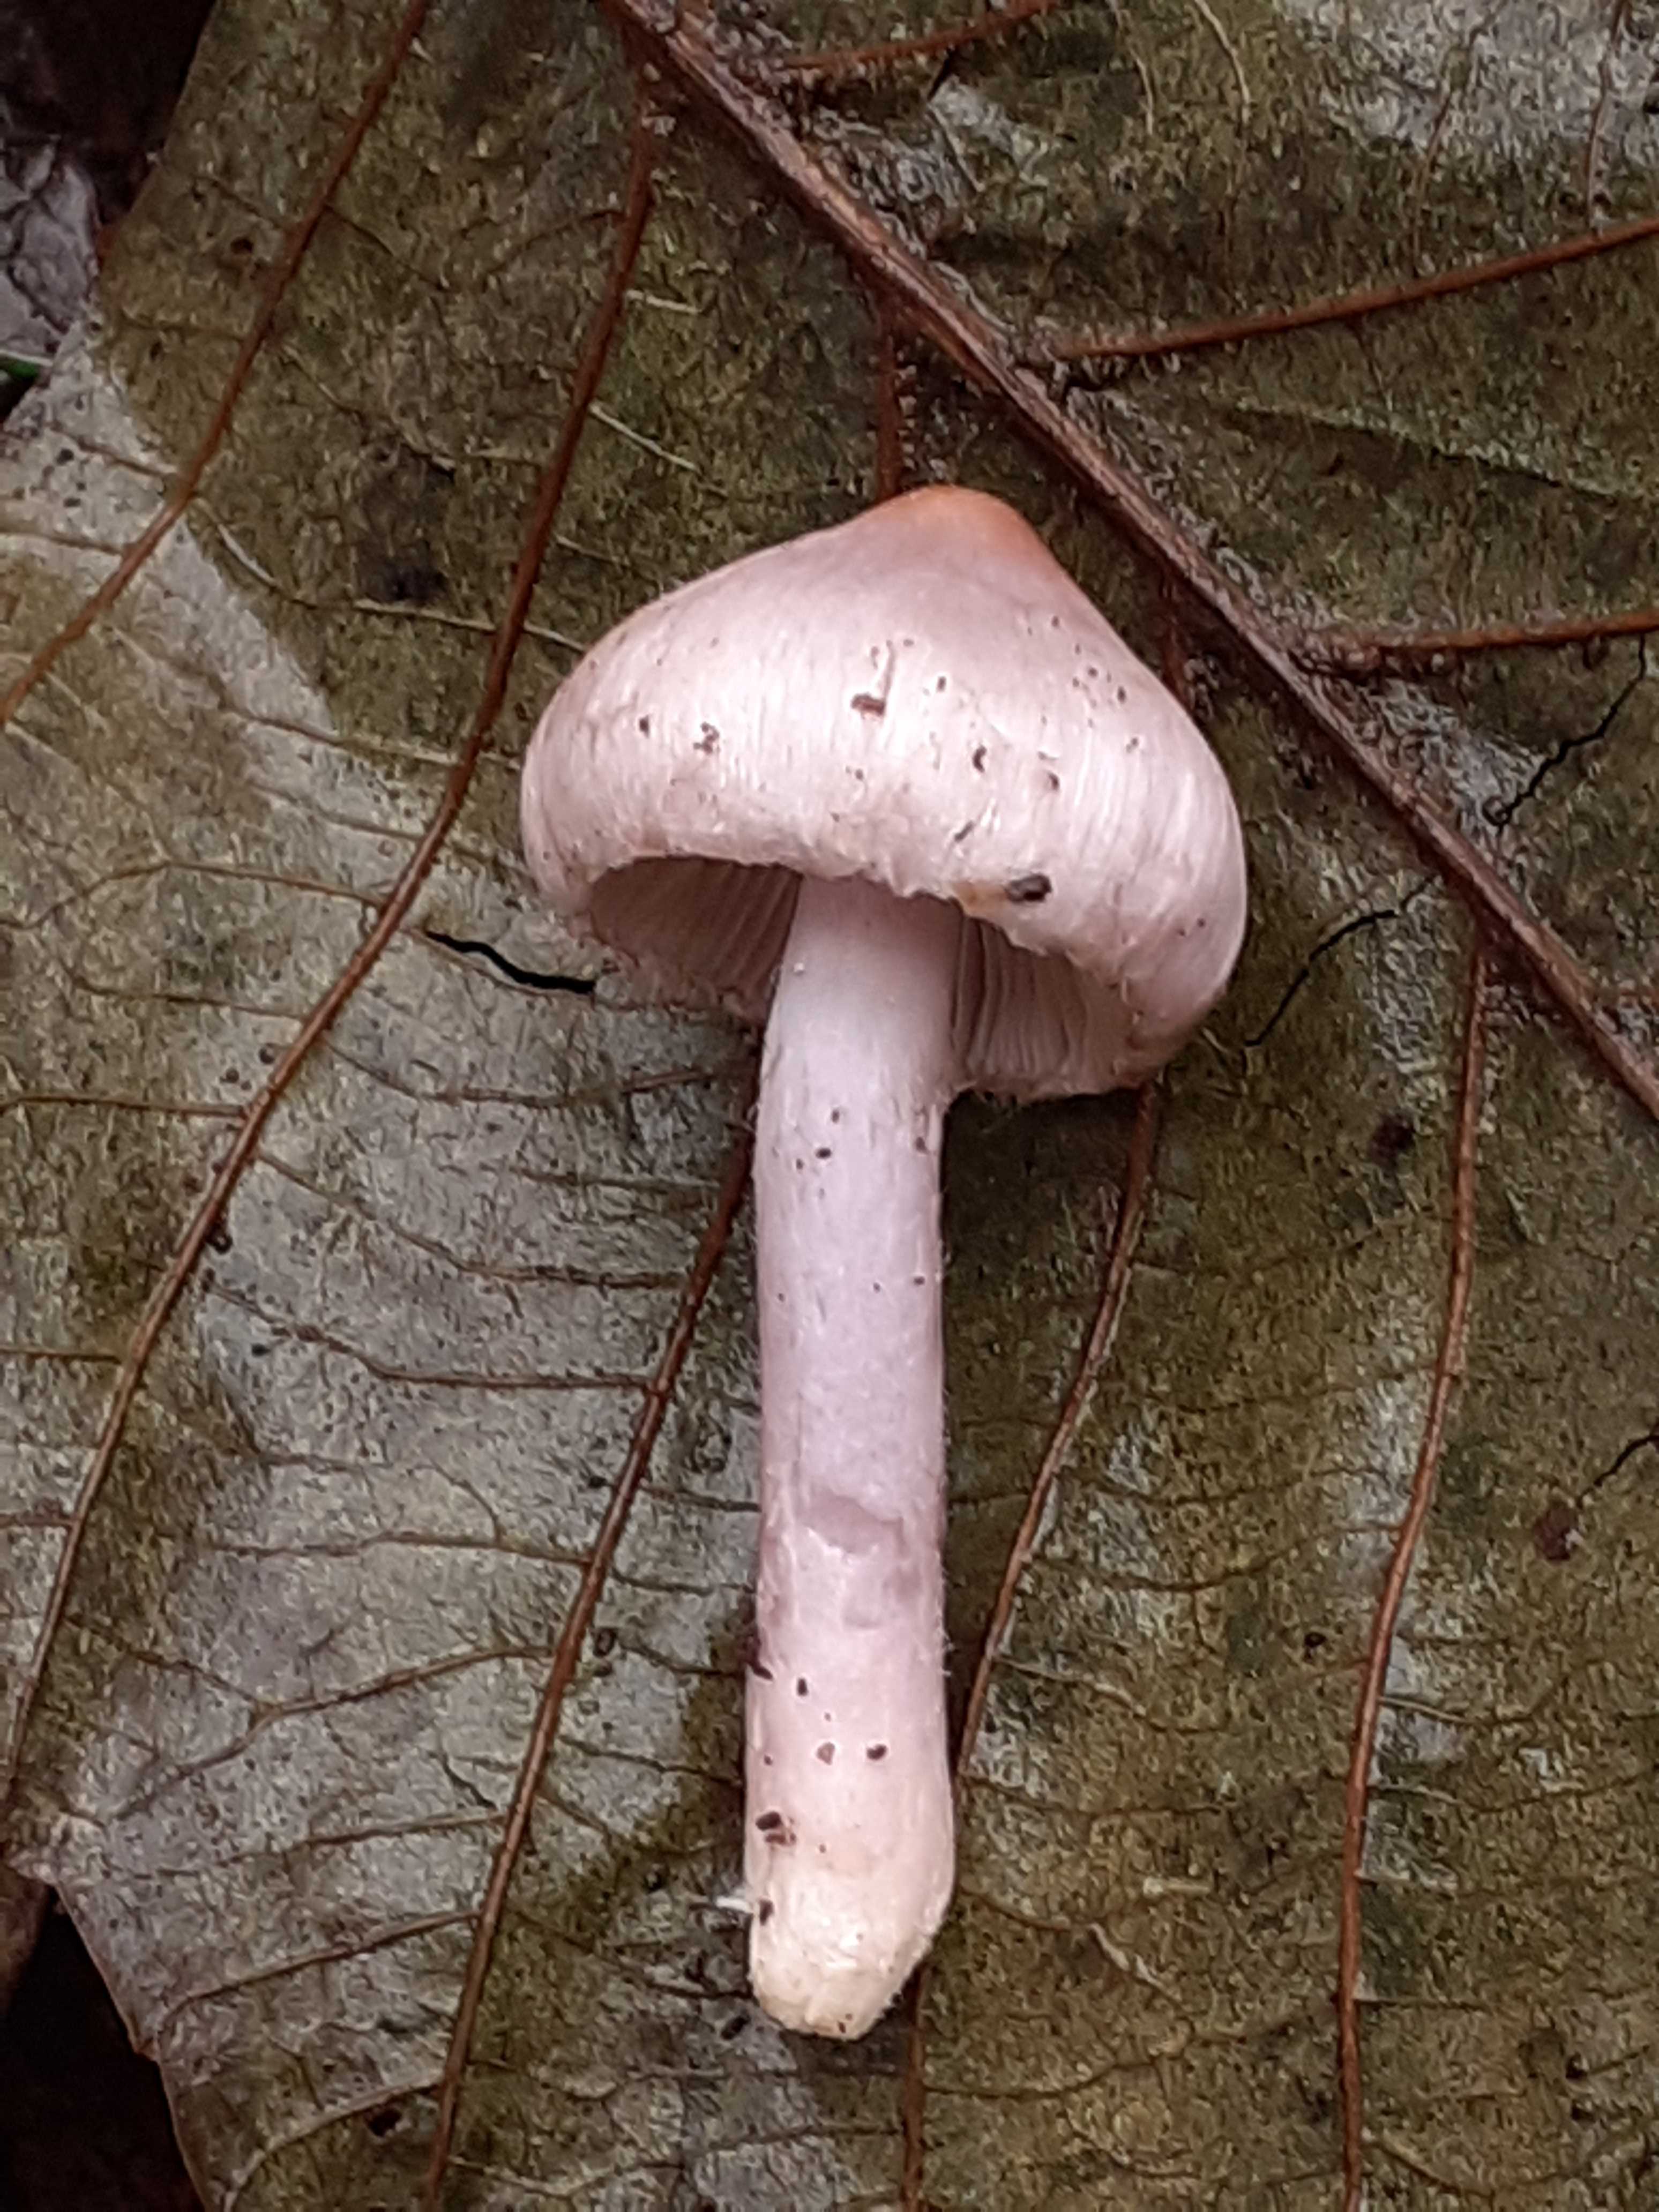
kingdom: Fungi
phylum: Basidiomycota
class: Agaricomycetes
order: Agaricales
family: Inocybaceae
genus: Inocybe
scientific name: Inocybe geophylla
